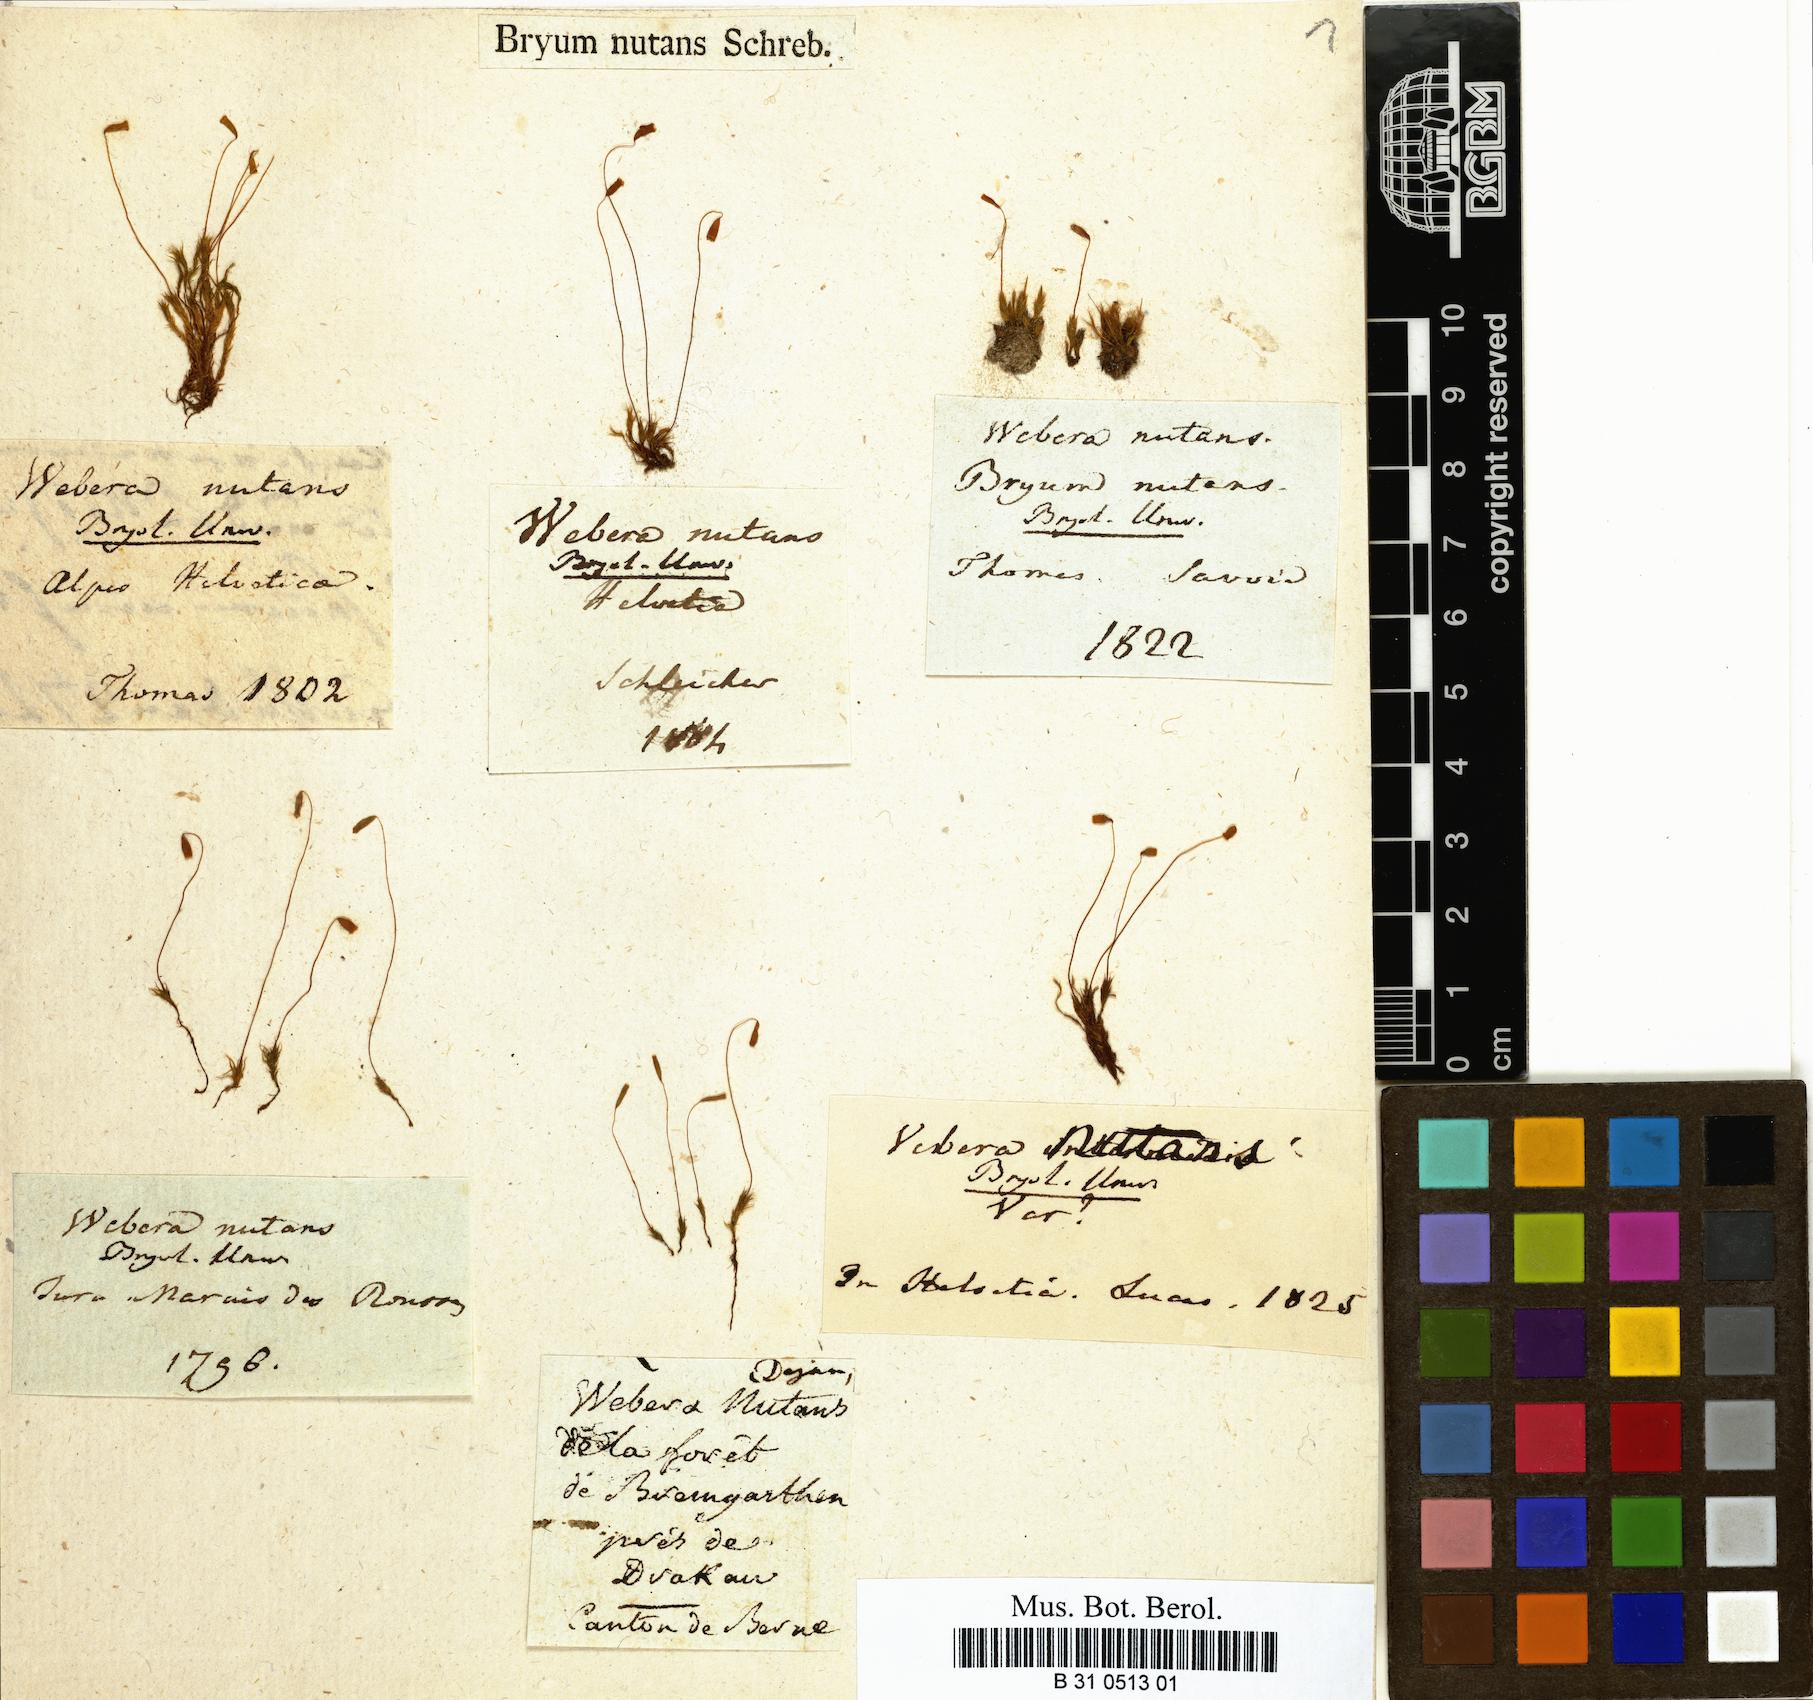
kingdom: Plantae
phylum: Bryophyta
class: Bryopsida
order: Bryales
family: Mniaceae
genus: Pohlia
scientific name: Pohlia nutans
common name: Nodding thread-moss
